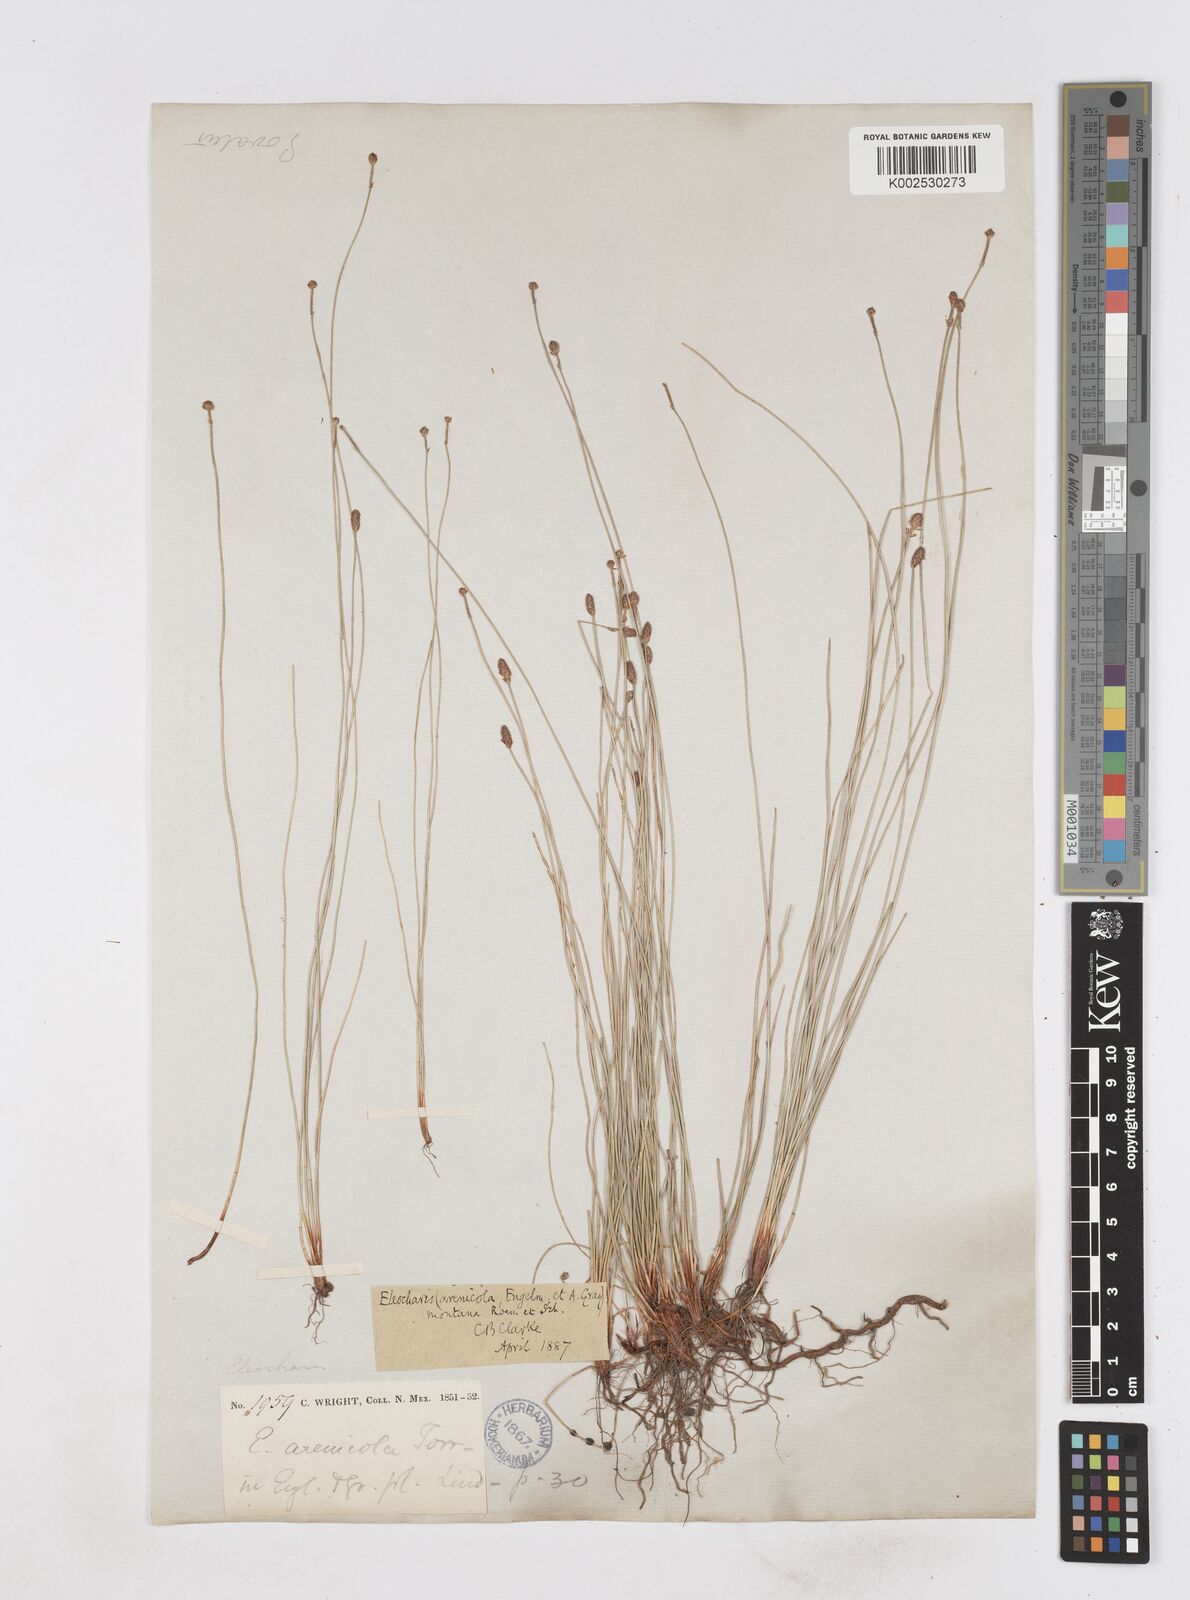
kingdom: Plantae
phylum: Tracheophyta
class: Liliopsida
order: Poales
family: Cyperaceae
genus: Eleocharis
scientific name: Eleocharis macounii
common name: Macoun's spikerush
